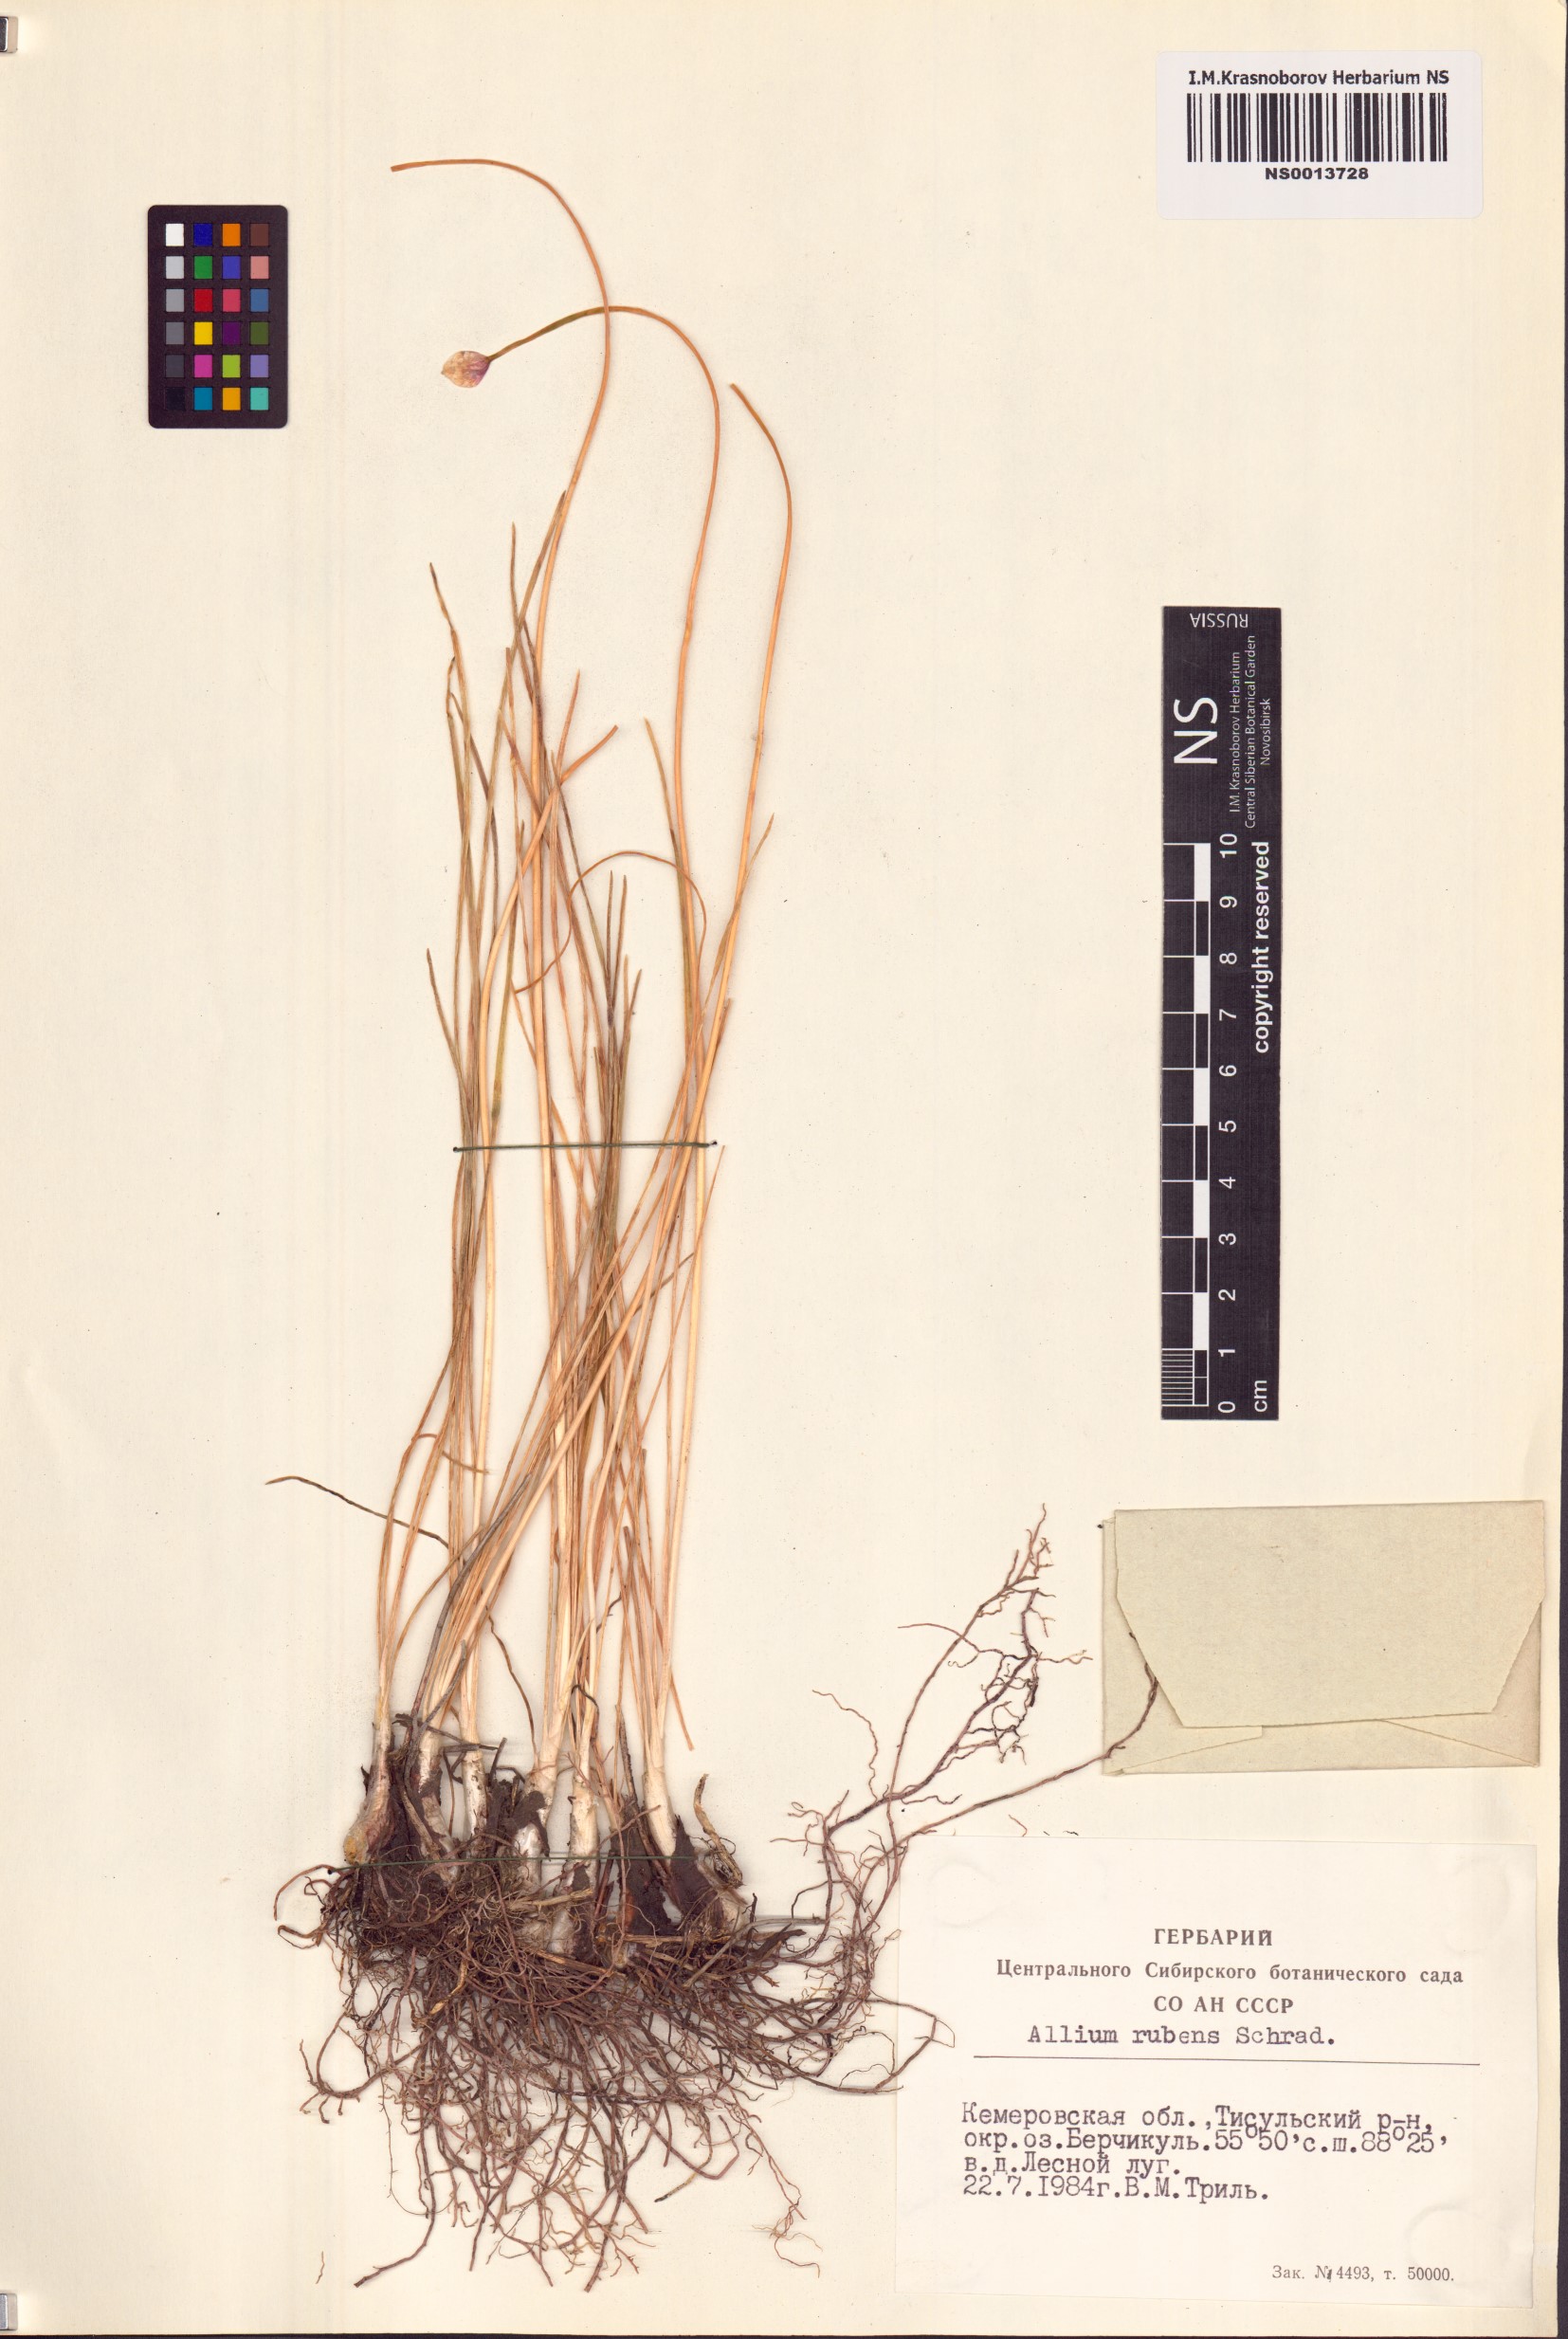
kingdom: Plantae
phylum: Tracheophyta
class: Liliopsida
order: Asparagales
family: Amaryllidaceae
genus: Allium
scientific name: Allium rubens
